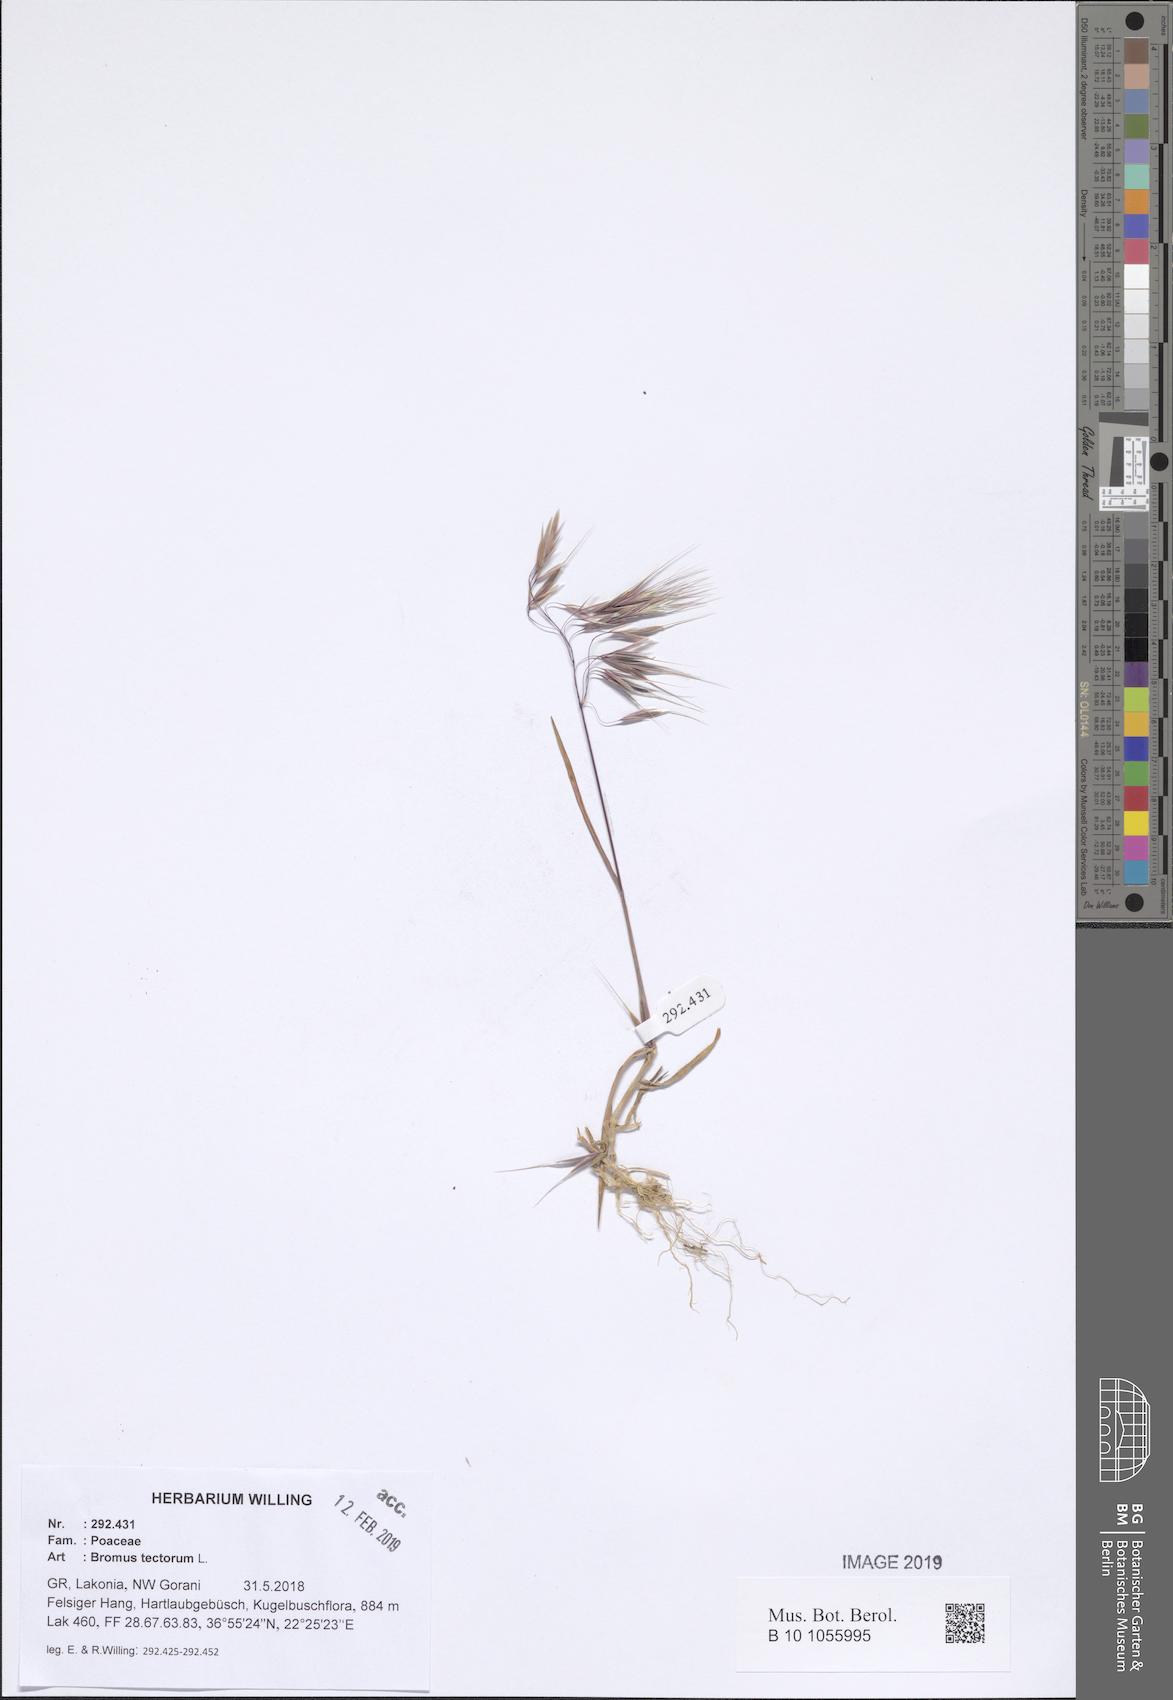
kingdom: Plantae
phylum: Tracheophyta
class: Liliopsida
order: Poales
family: Poaceae
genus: Bromus
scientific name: Bromus tectorum
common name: Cheatgrass
